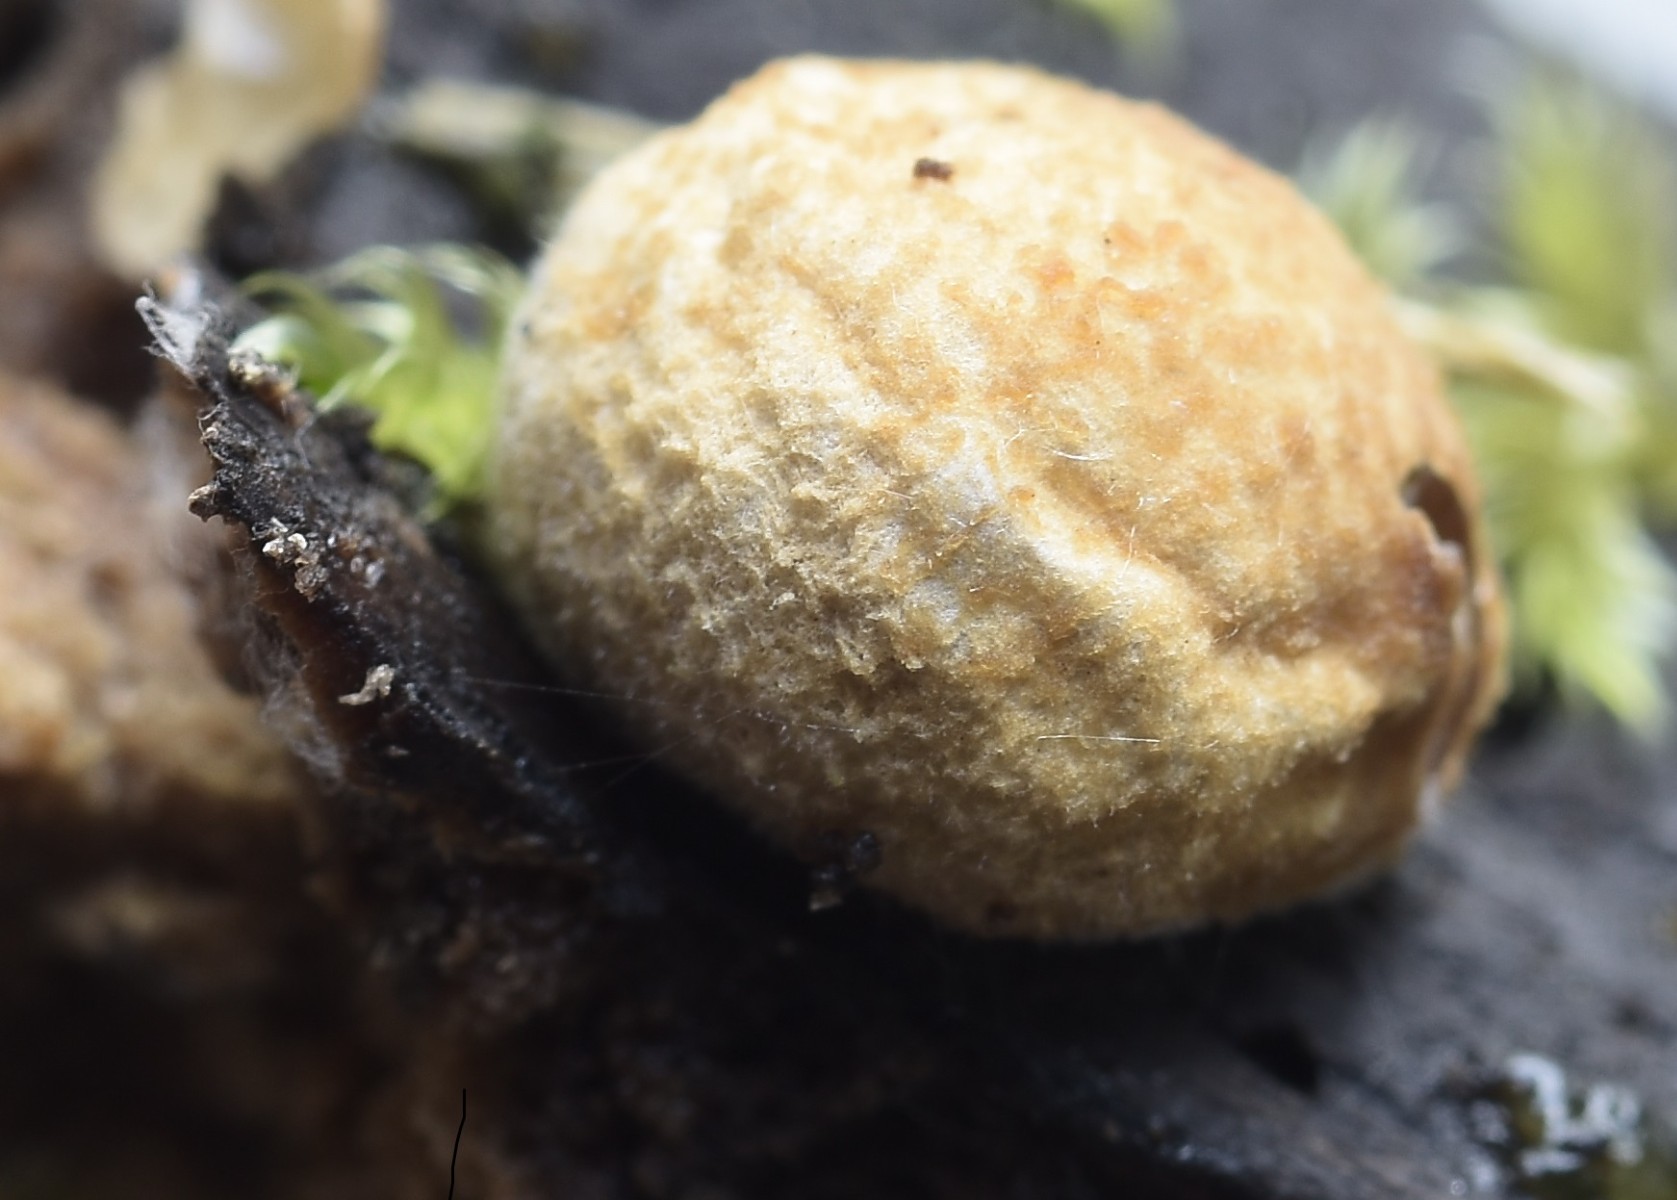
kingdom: Fungi
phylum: Basidiomycota
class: Agaricomycetes
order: Agaricales
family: Agaricaceae
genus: Nidularia
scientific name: Nidularia deformis
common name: pudesvamp
